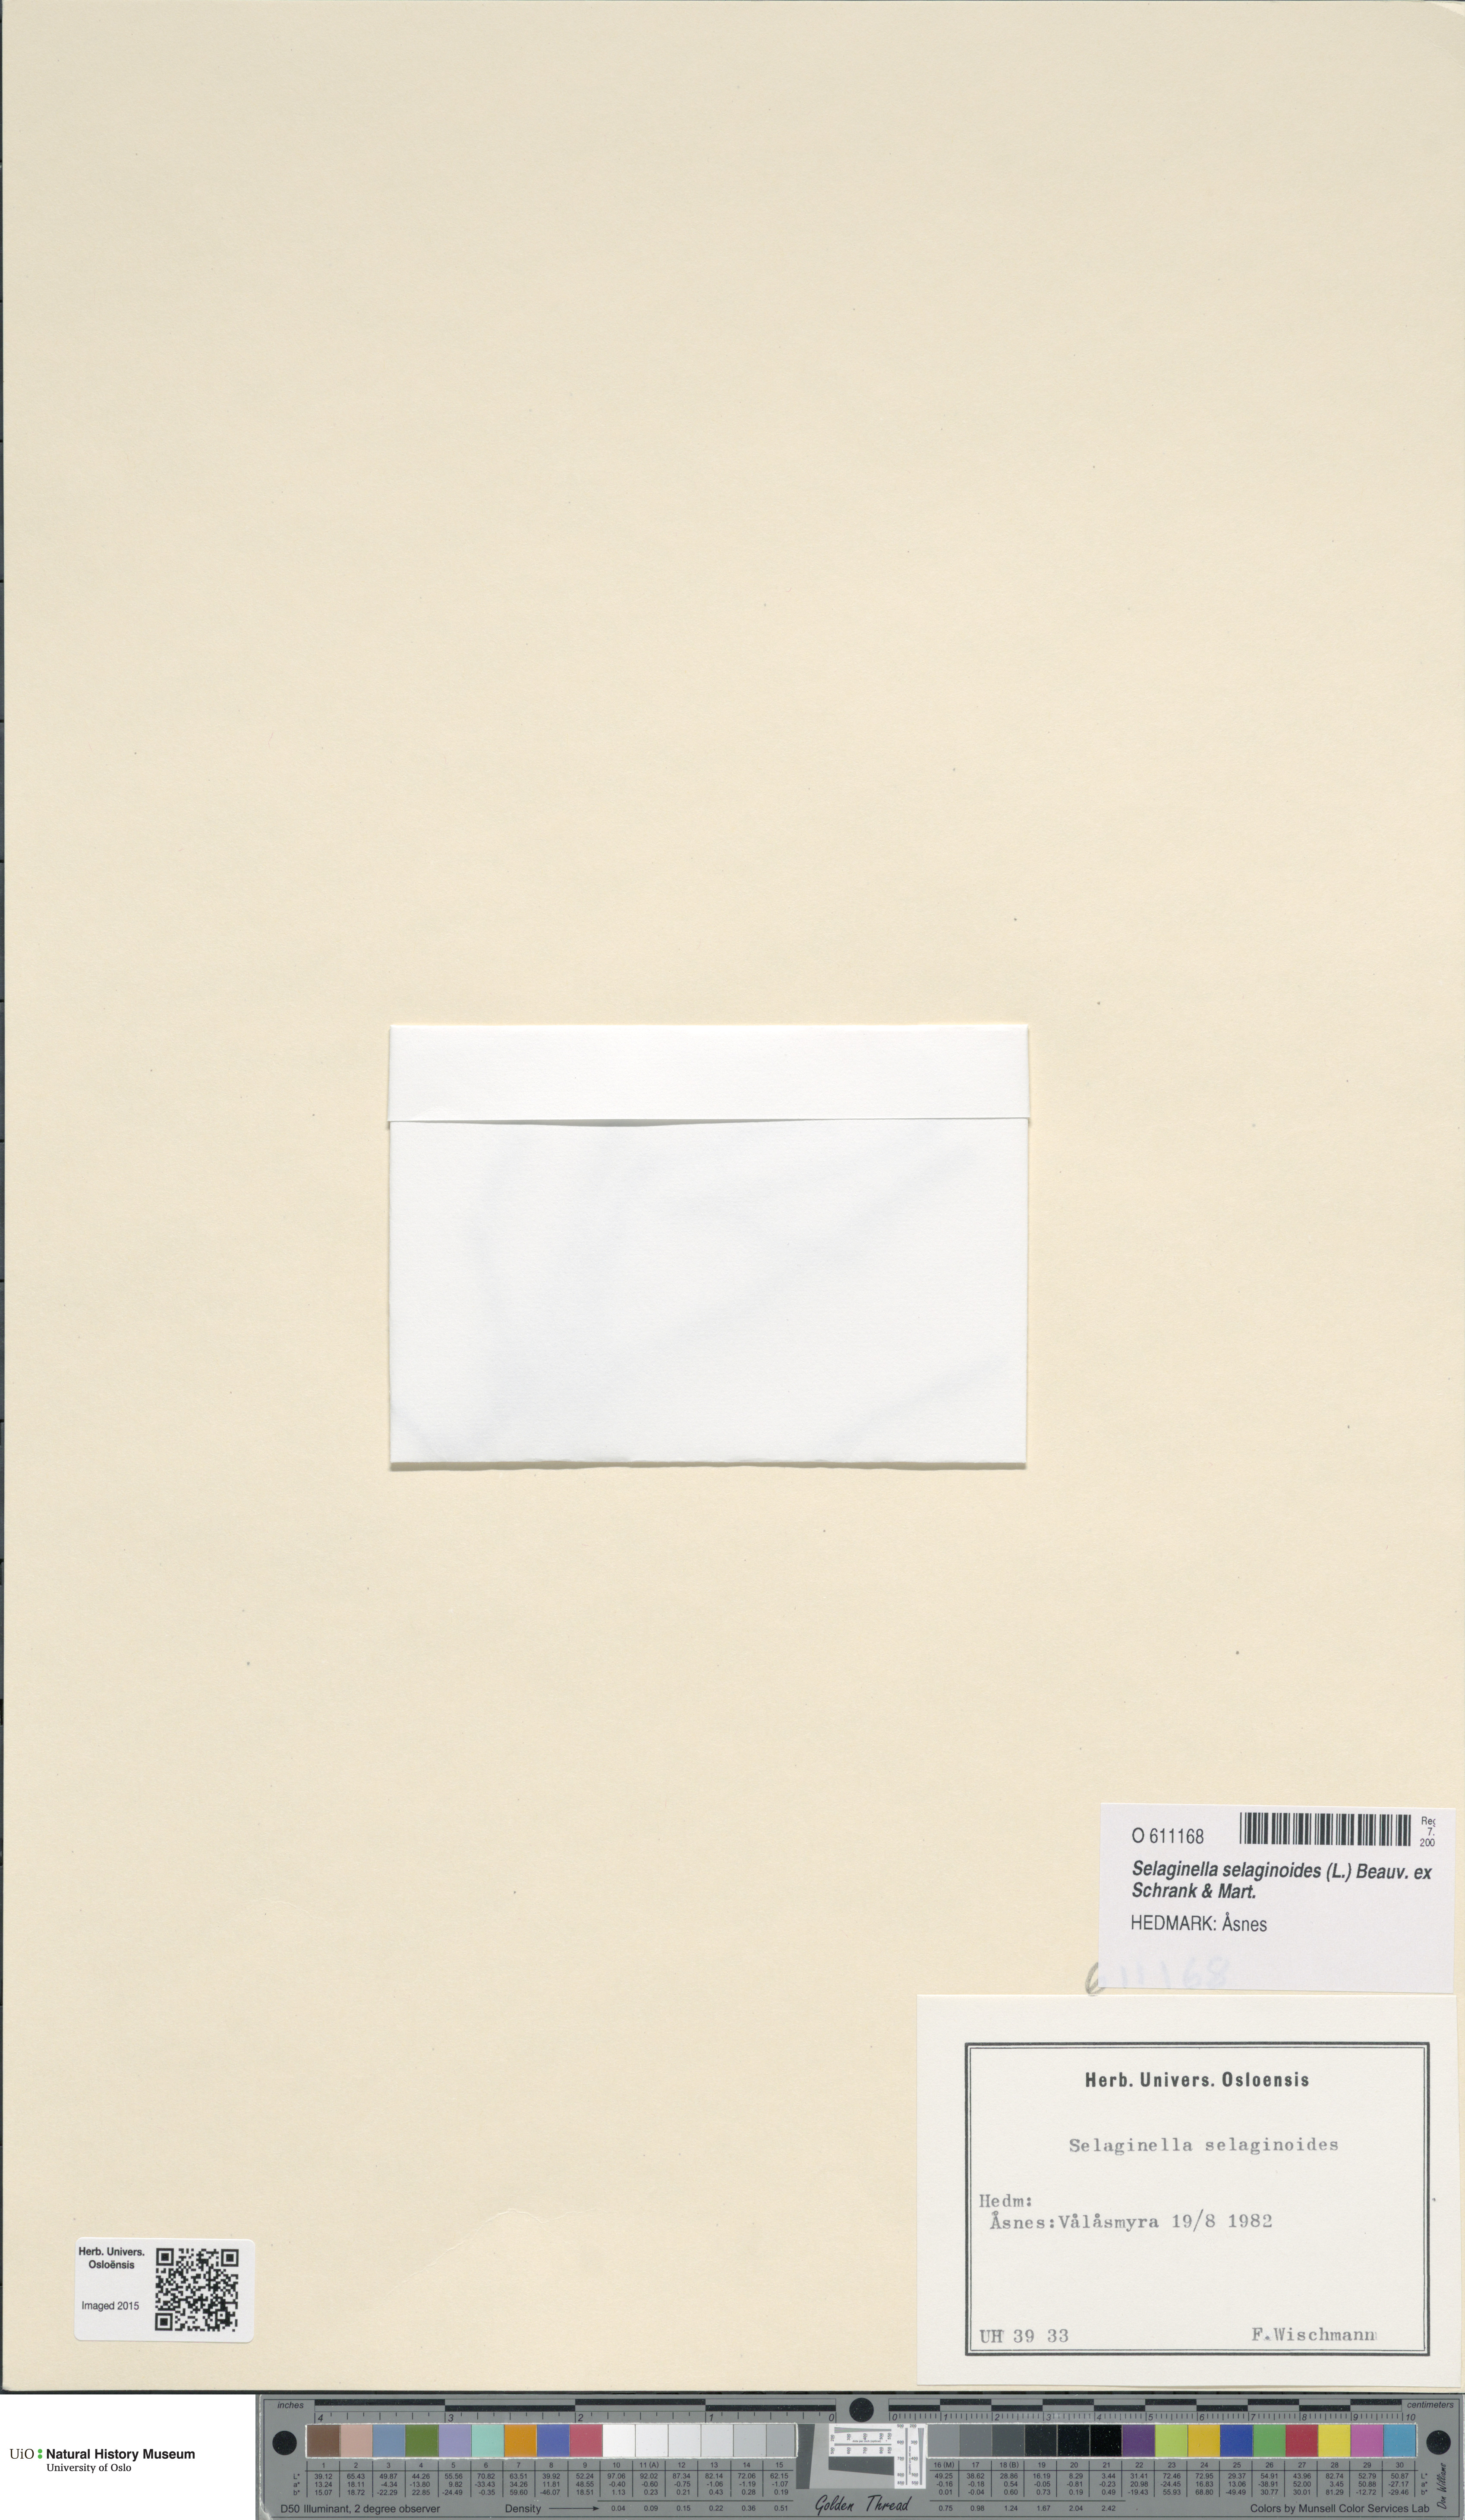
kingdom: Plantae
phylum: Tracheophyta
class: Lycopodiopsida
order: Selaginellales
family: Selaginellaceae
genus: Selaginella
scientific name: Selaginella selaginoides
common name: Prickly mountain-moss
